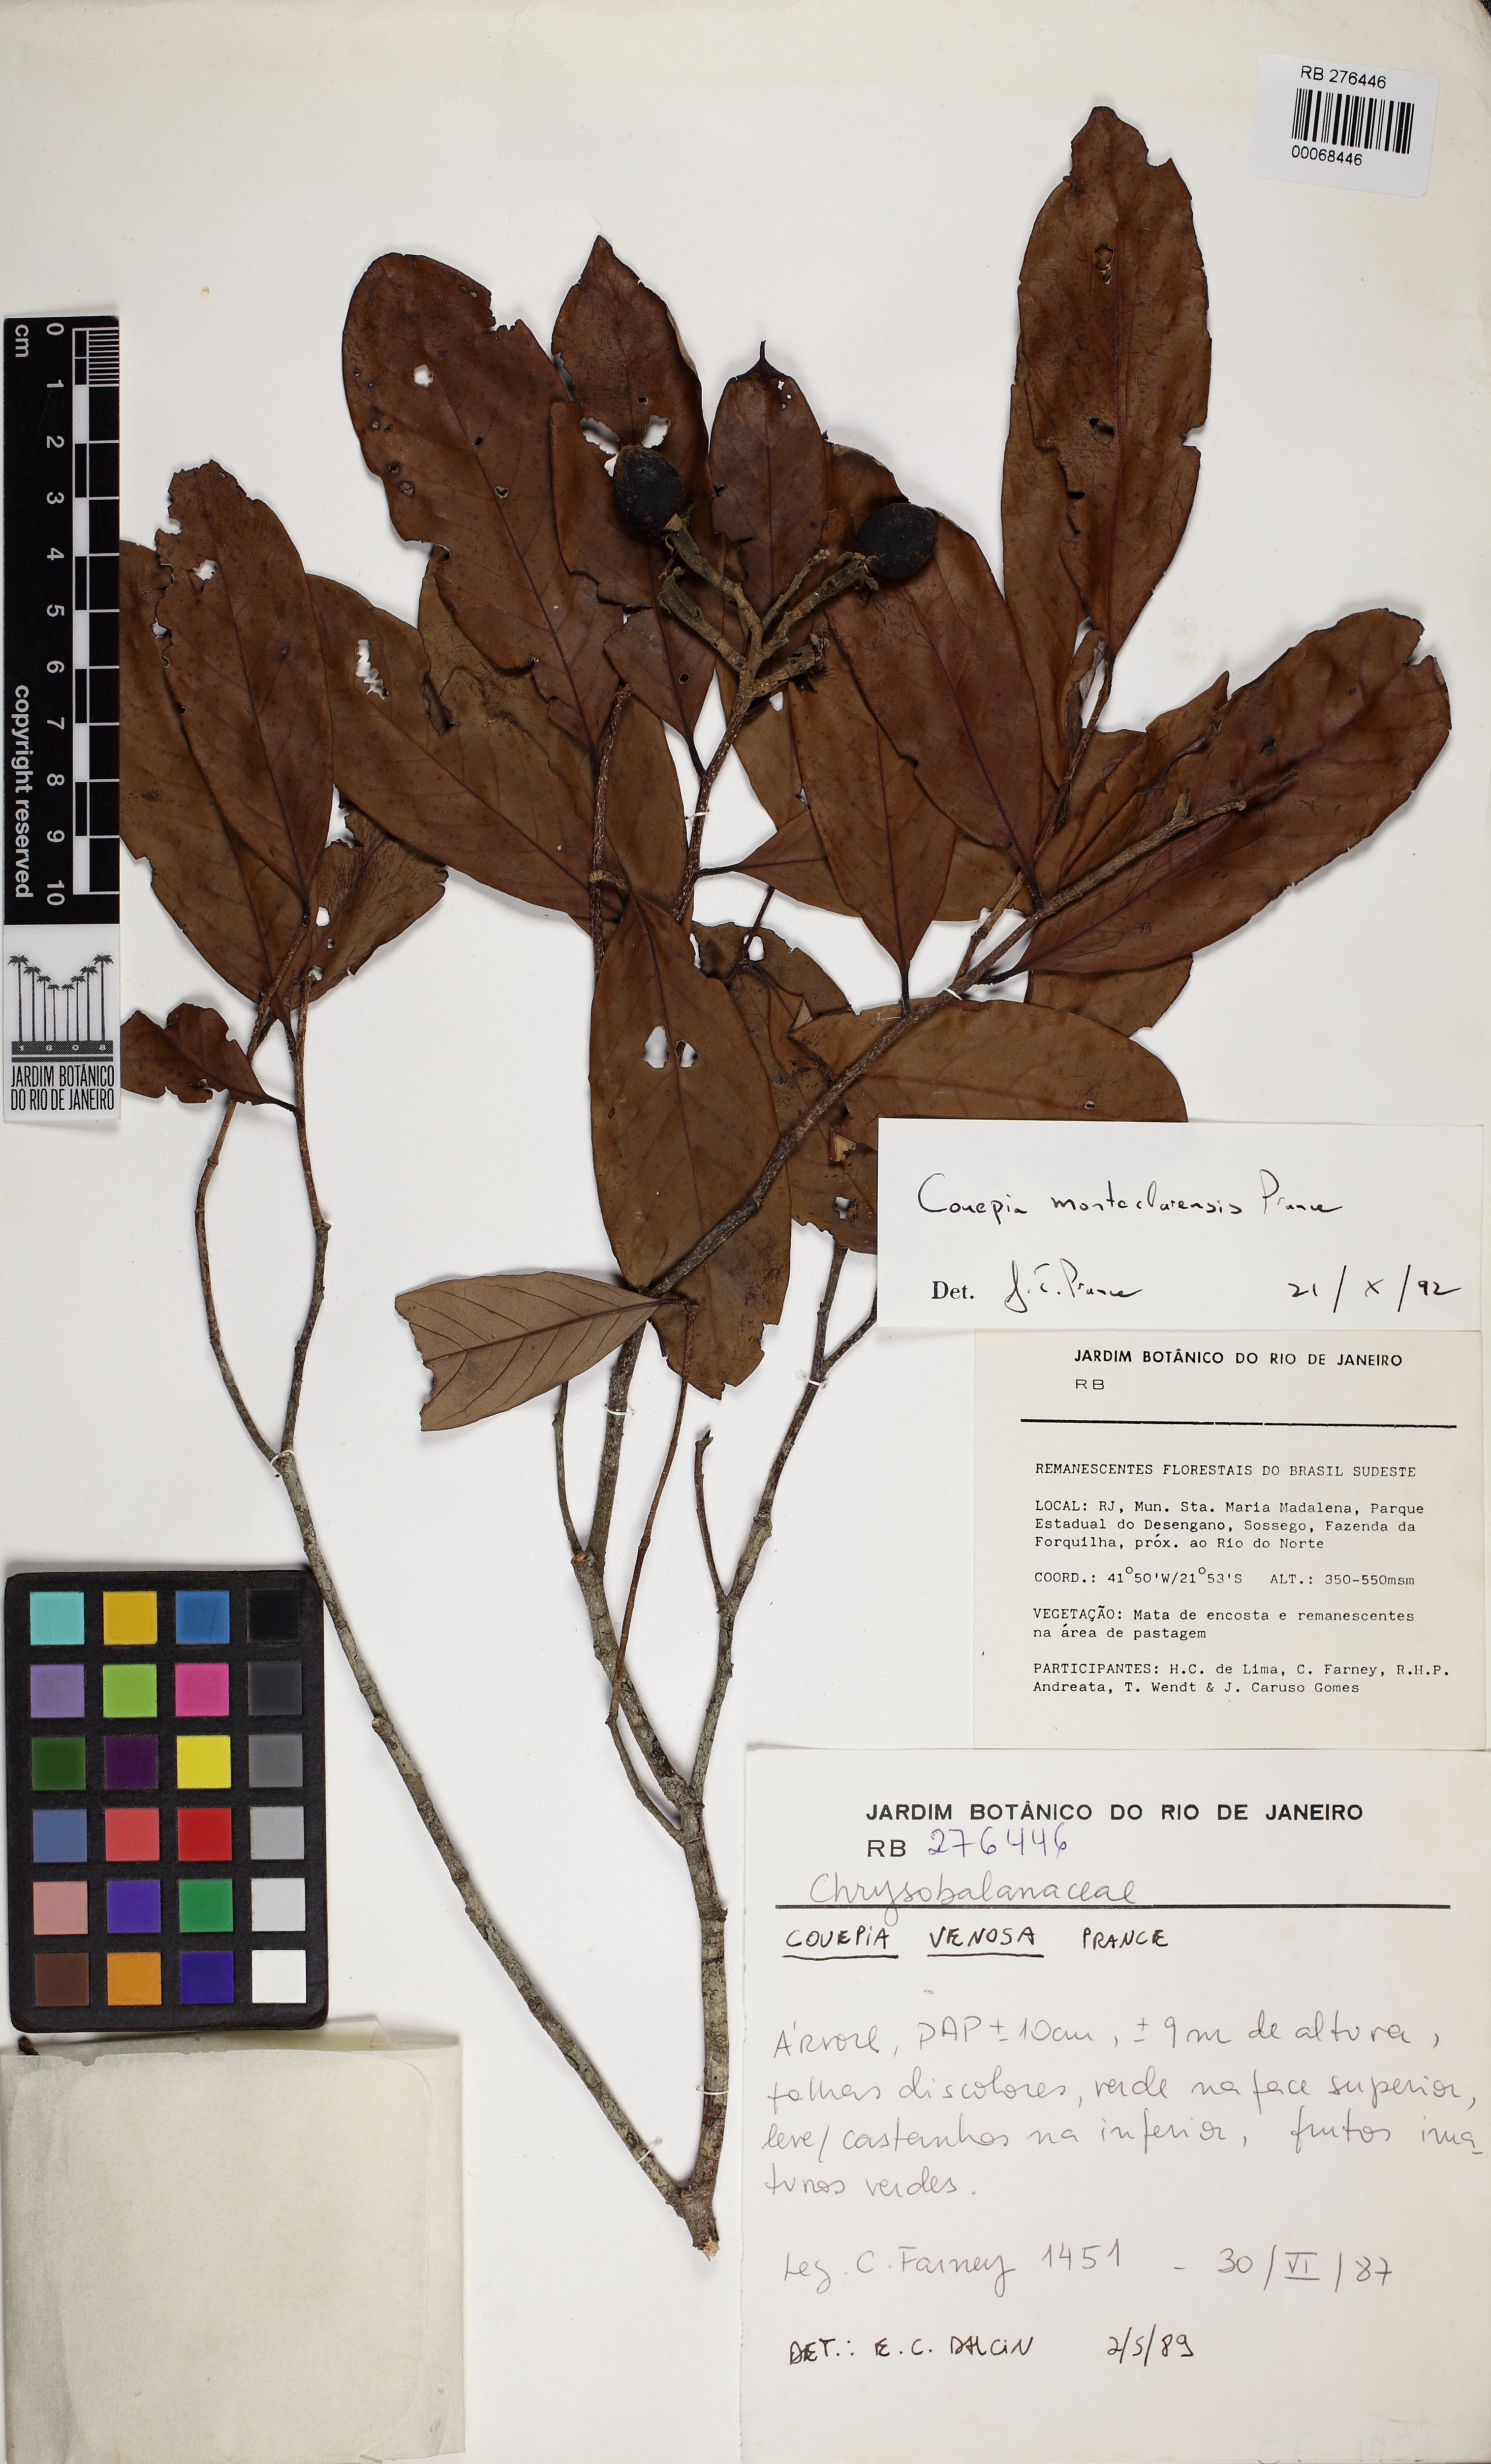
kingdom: Plantae
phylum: Tracheophyta
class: Magnoliopsida
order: Malpighiales
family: Chrysobalanaceae
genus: Couepia
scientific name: Couepia venosa
